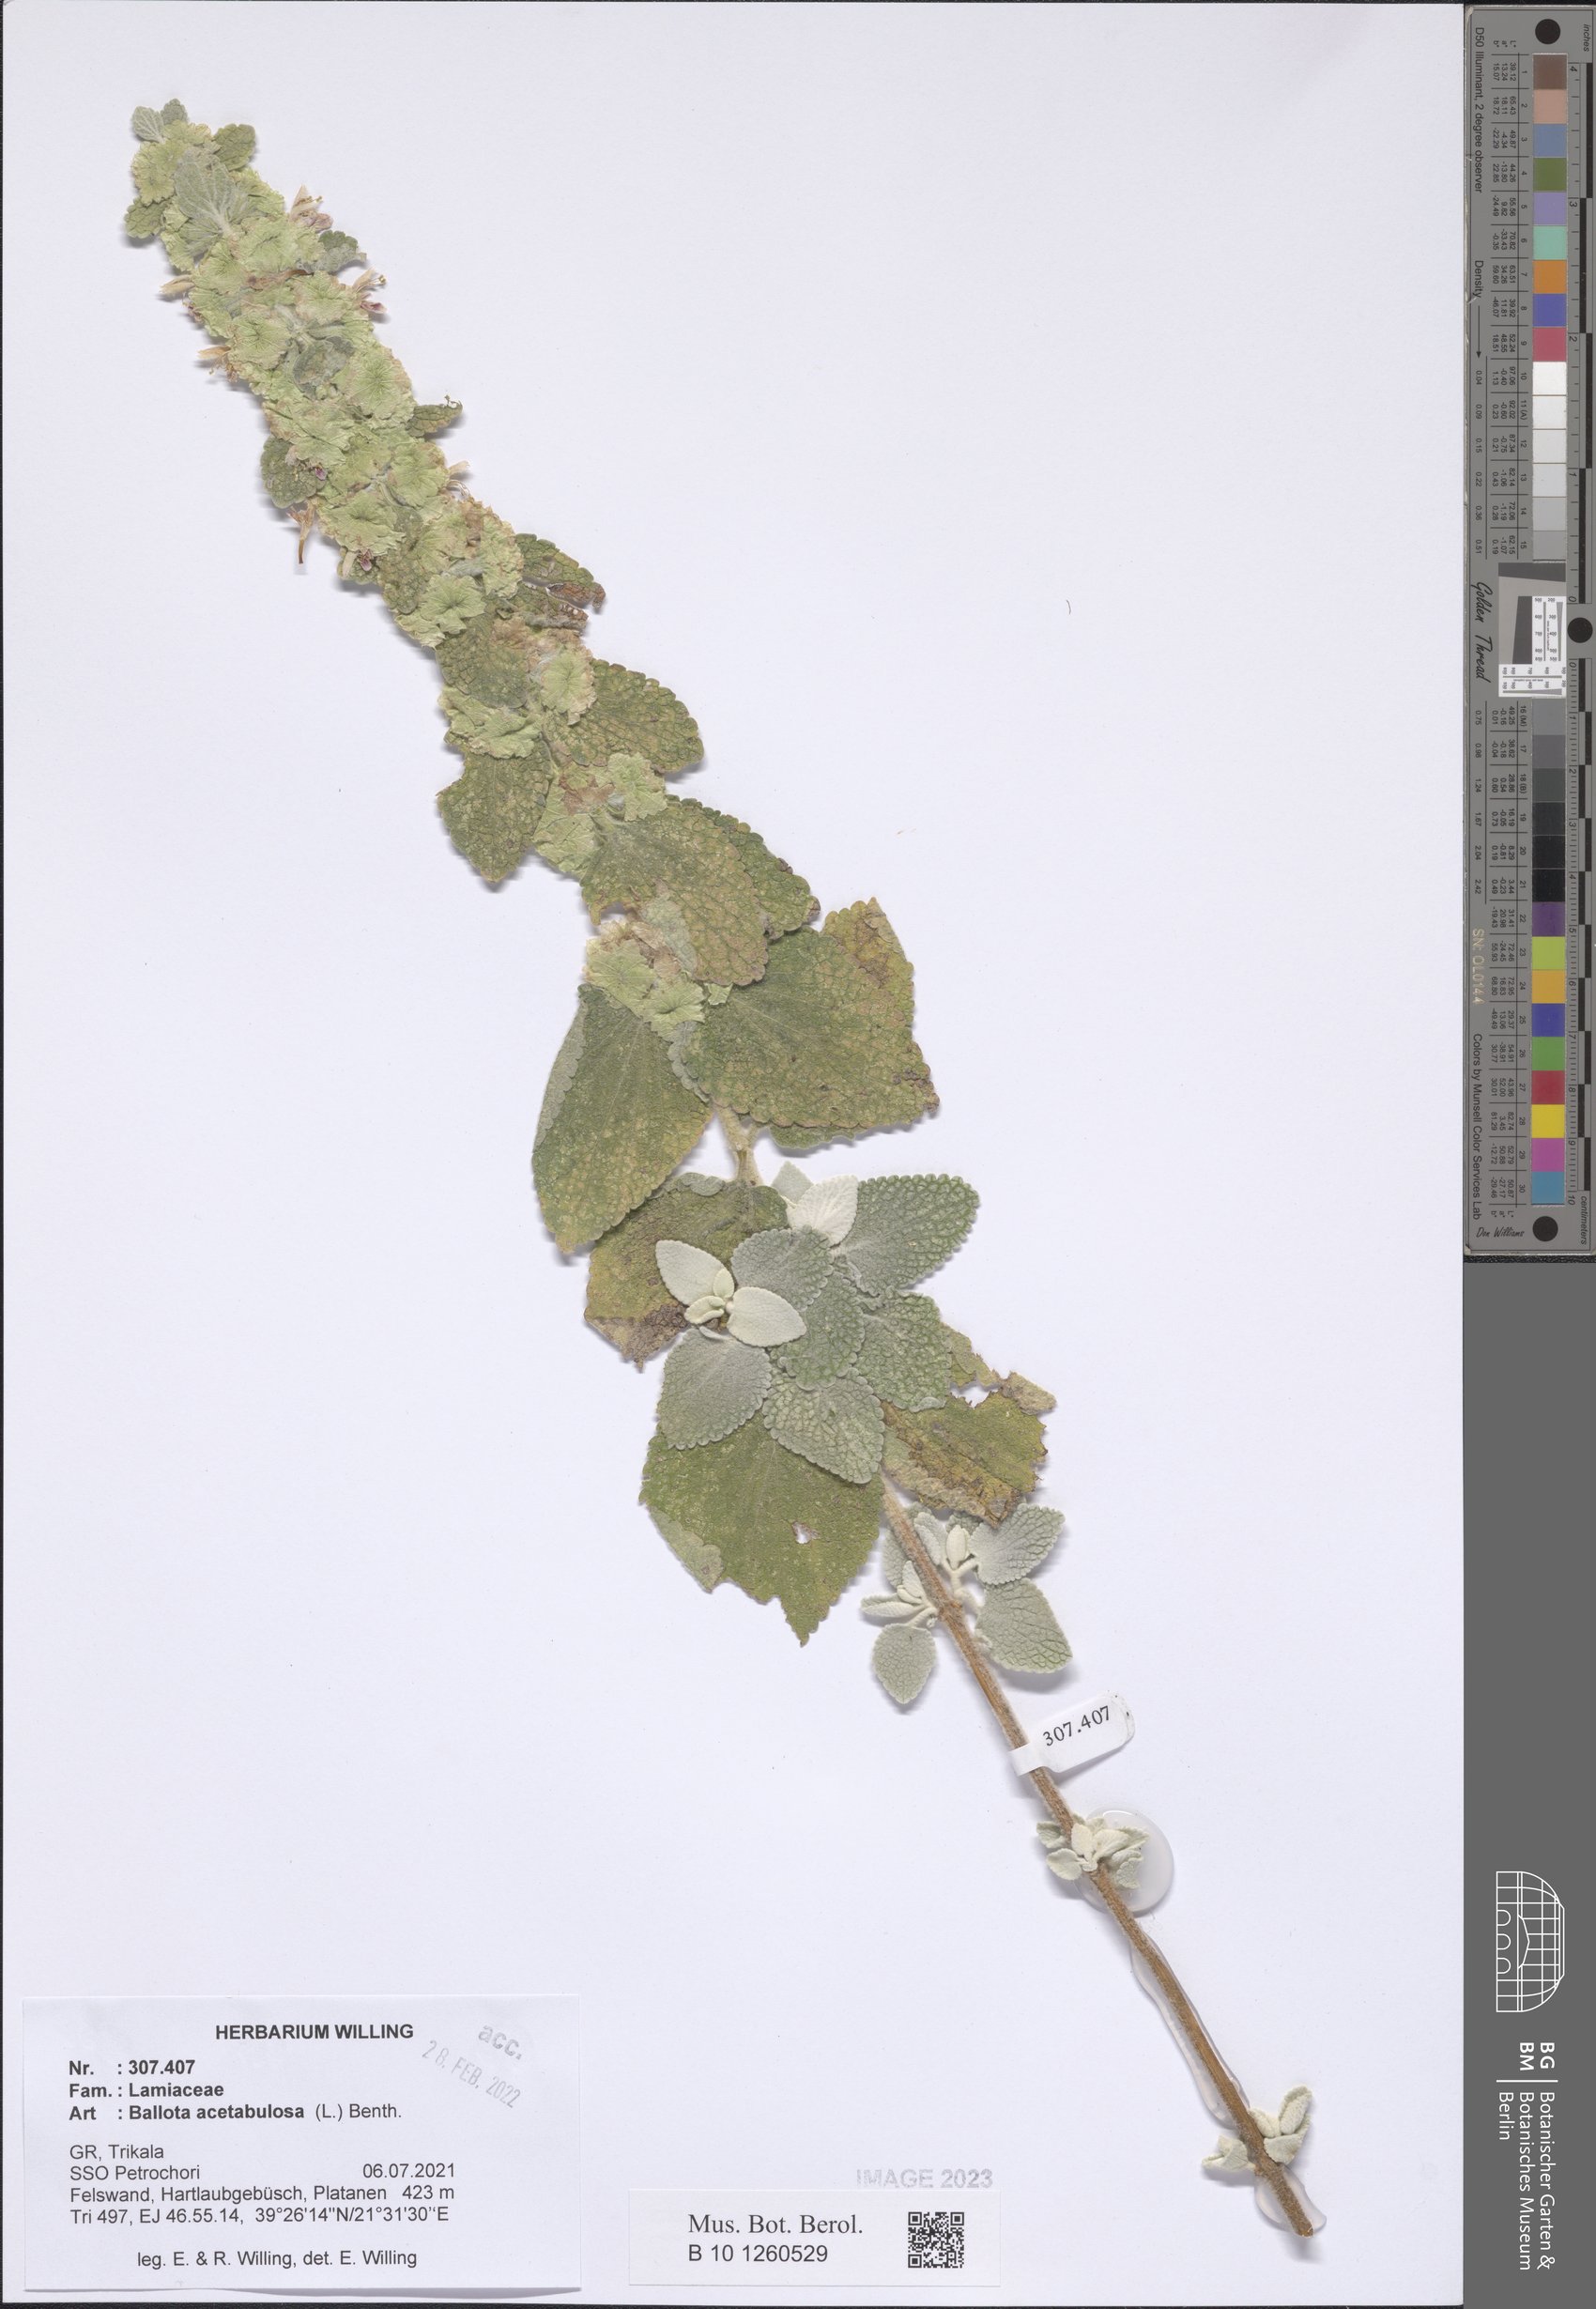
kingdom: Plantae
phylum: Tracheophyta
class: Magnoliopsida
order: Lamiales
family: Lamiaceae
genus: Pseudodictamnus
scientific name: Pseudodictamnus acetabulosus
